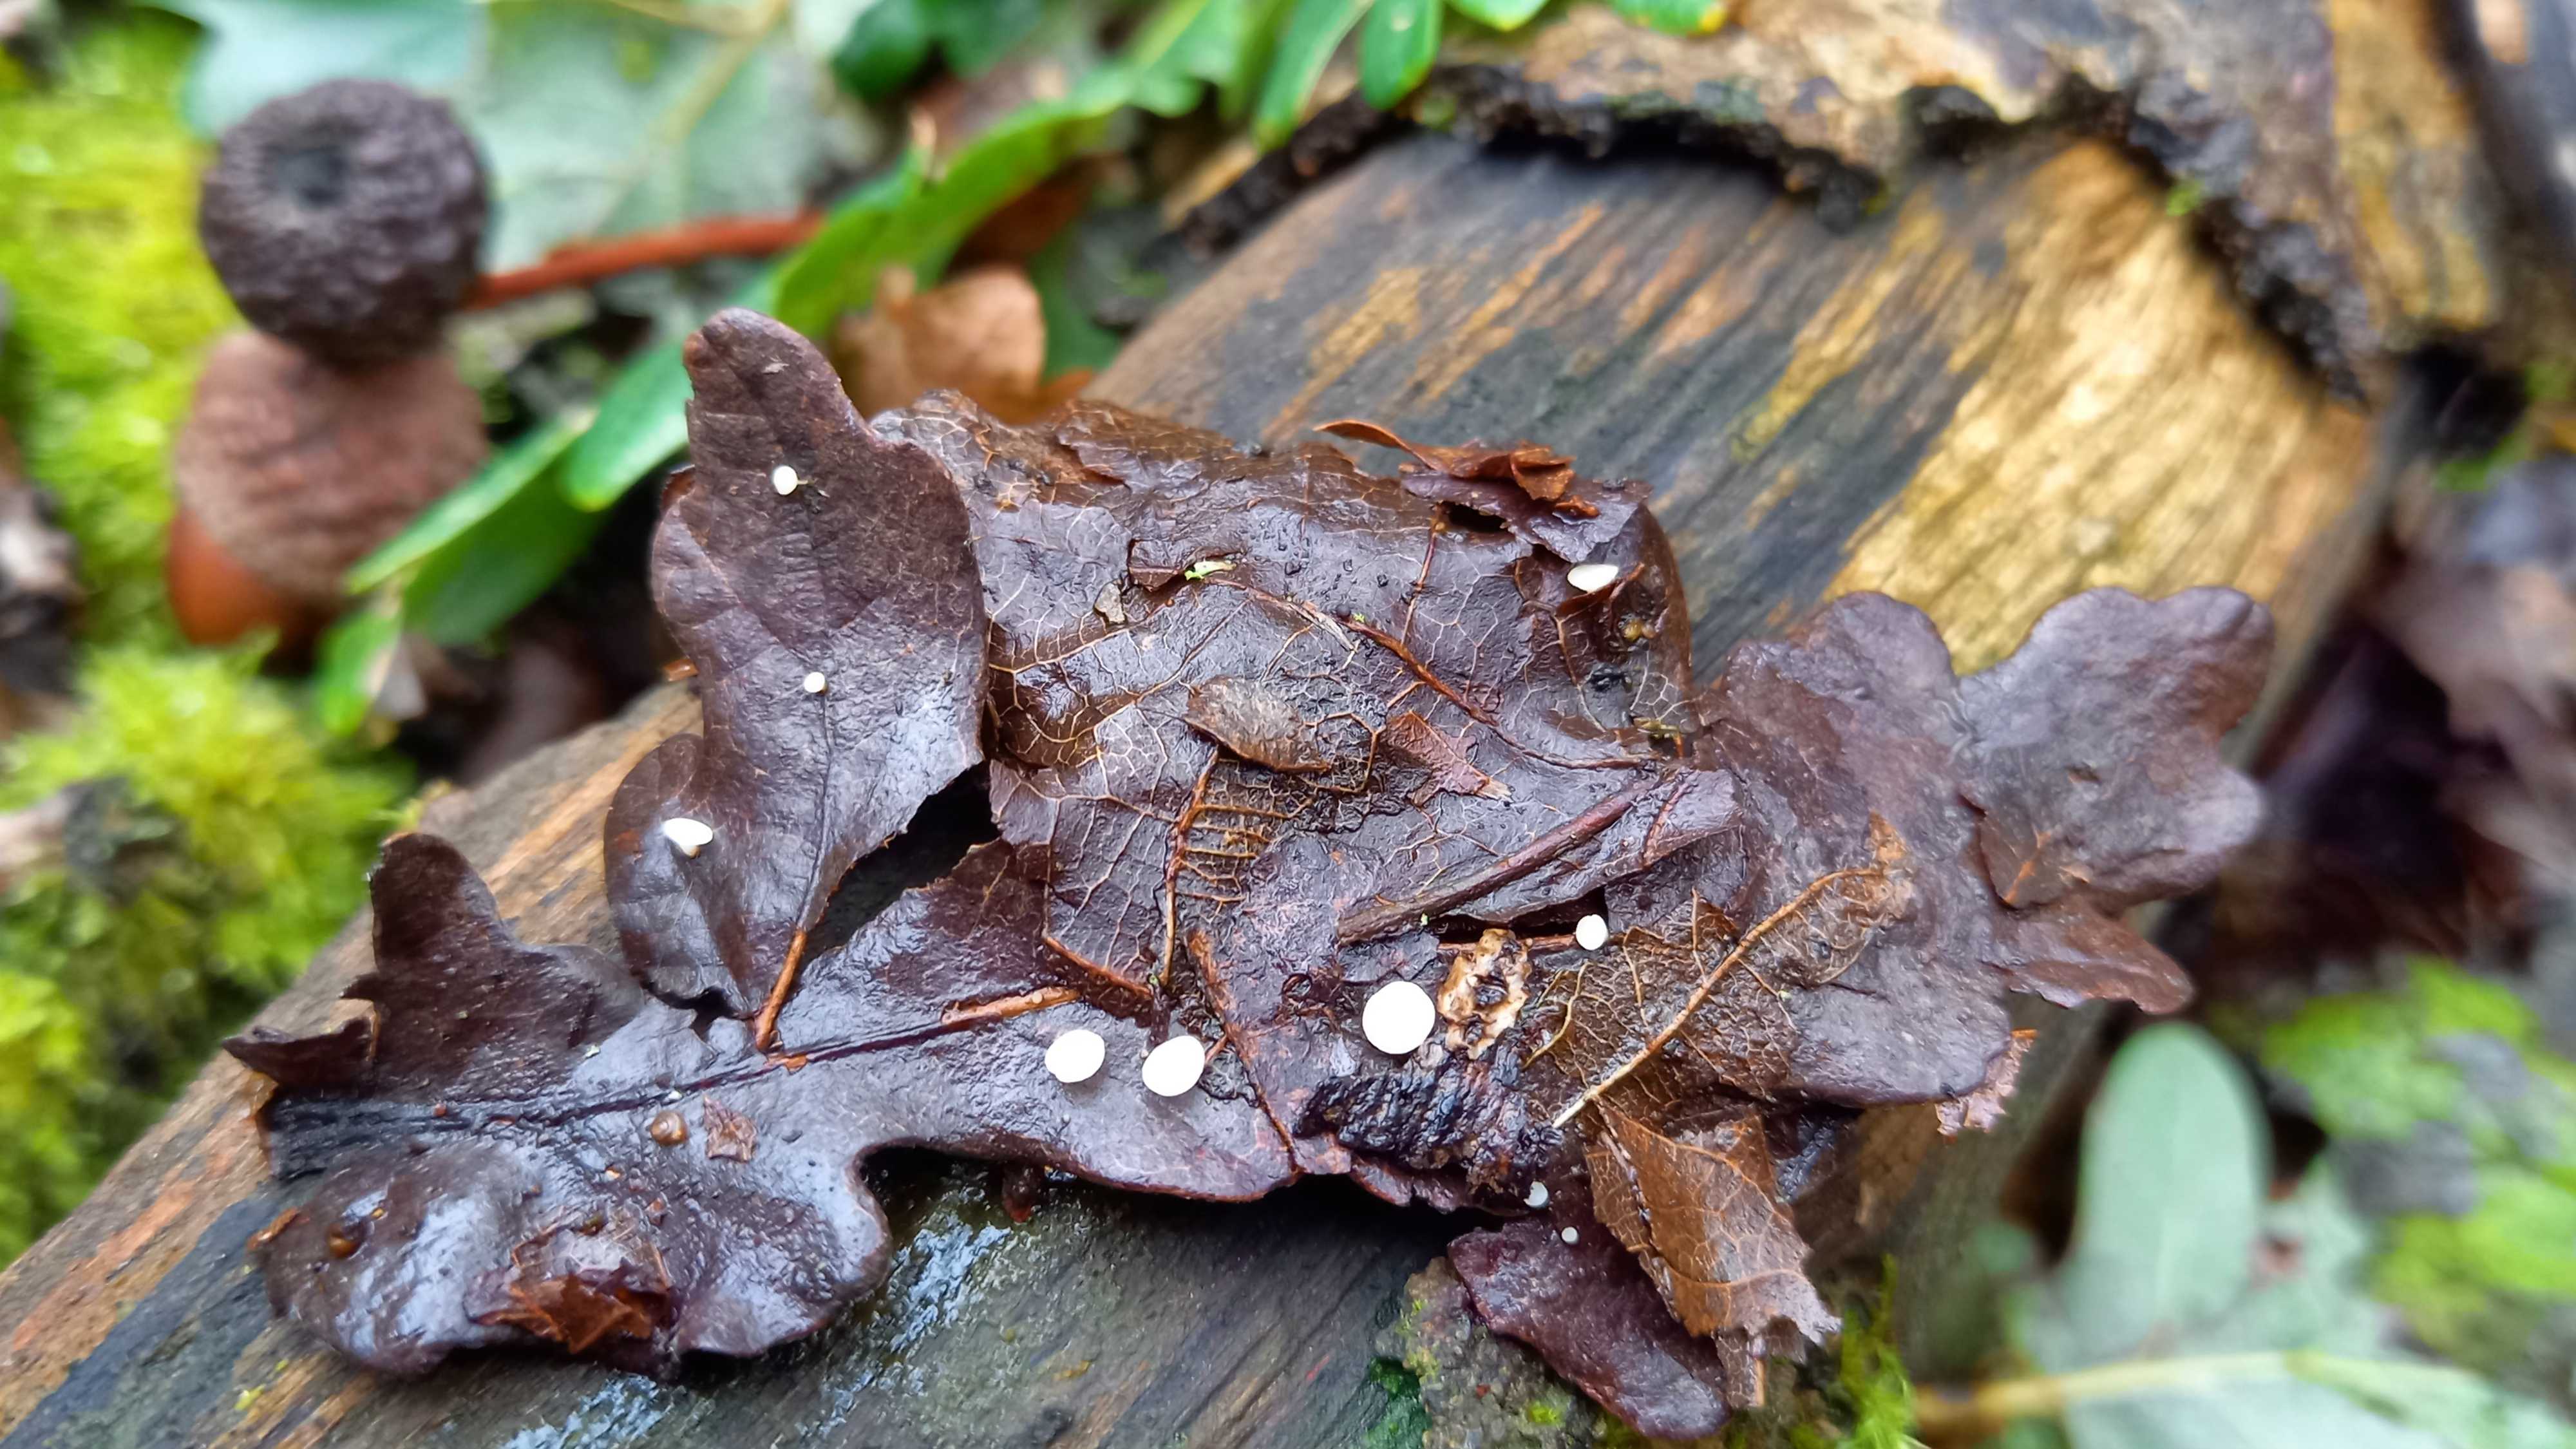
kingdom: Fungi
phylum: Ascomycota
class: Leotiomycetes
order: Helotiales
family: Helotiaceae
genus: Hymenoscyphus
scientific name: Hymenoscyphus
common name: stilkskive
